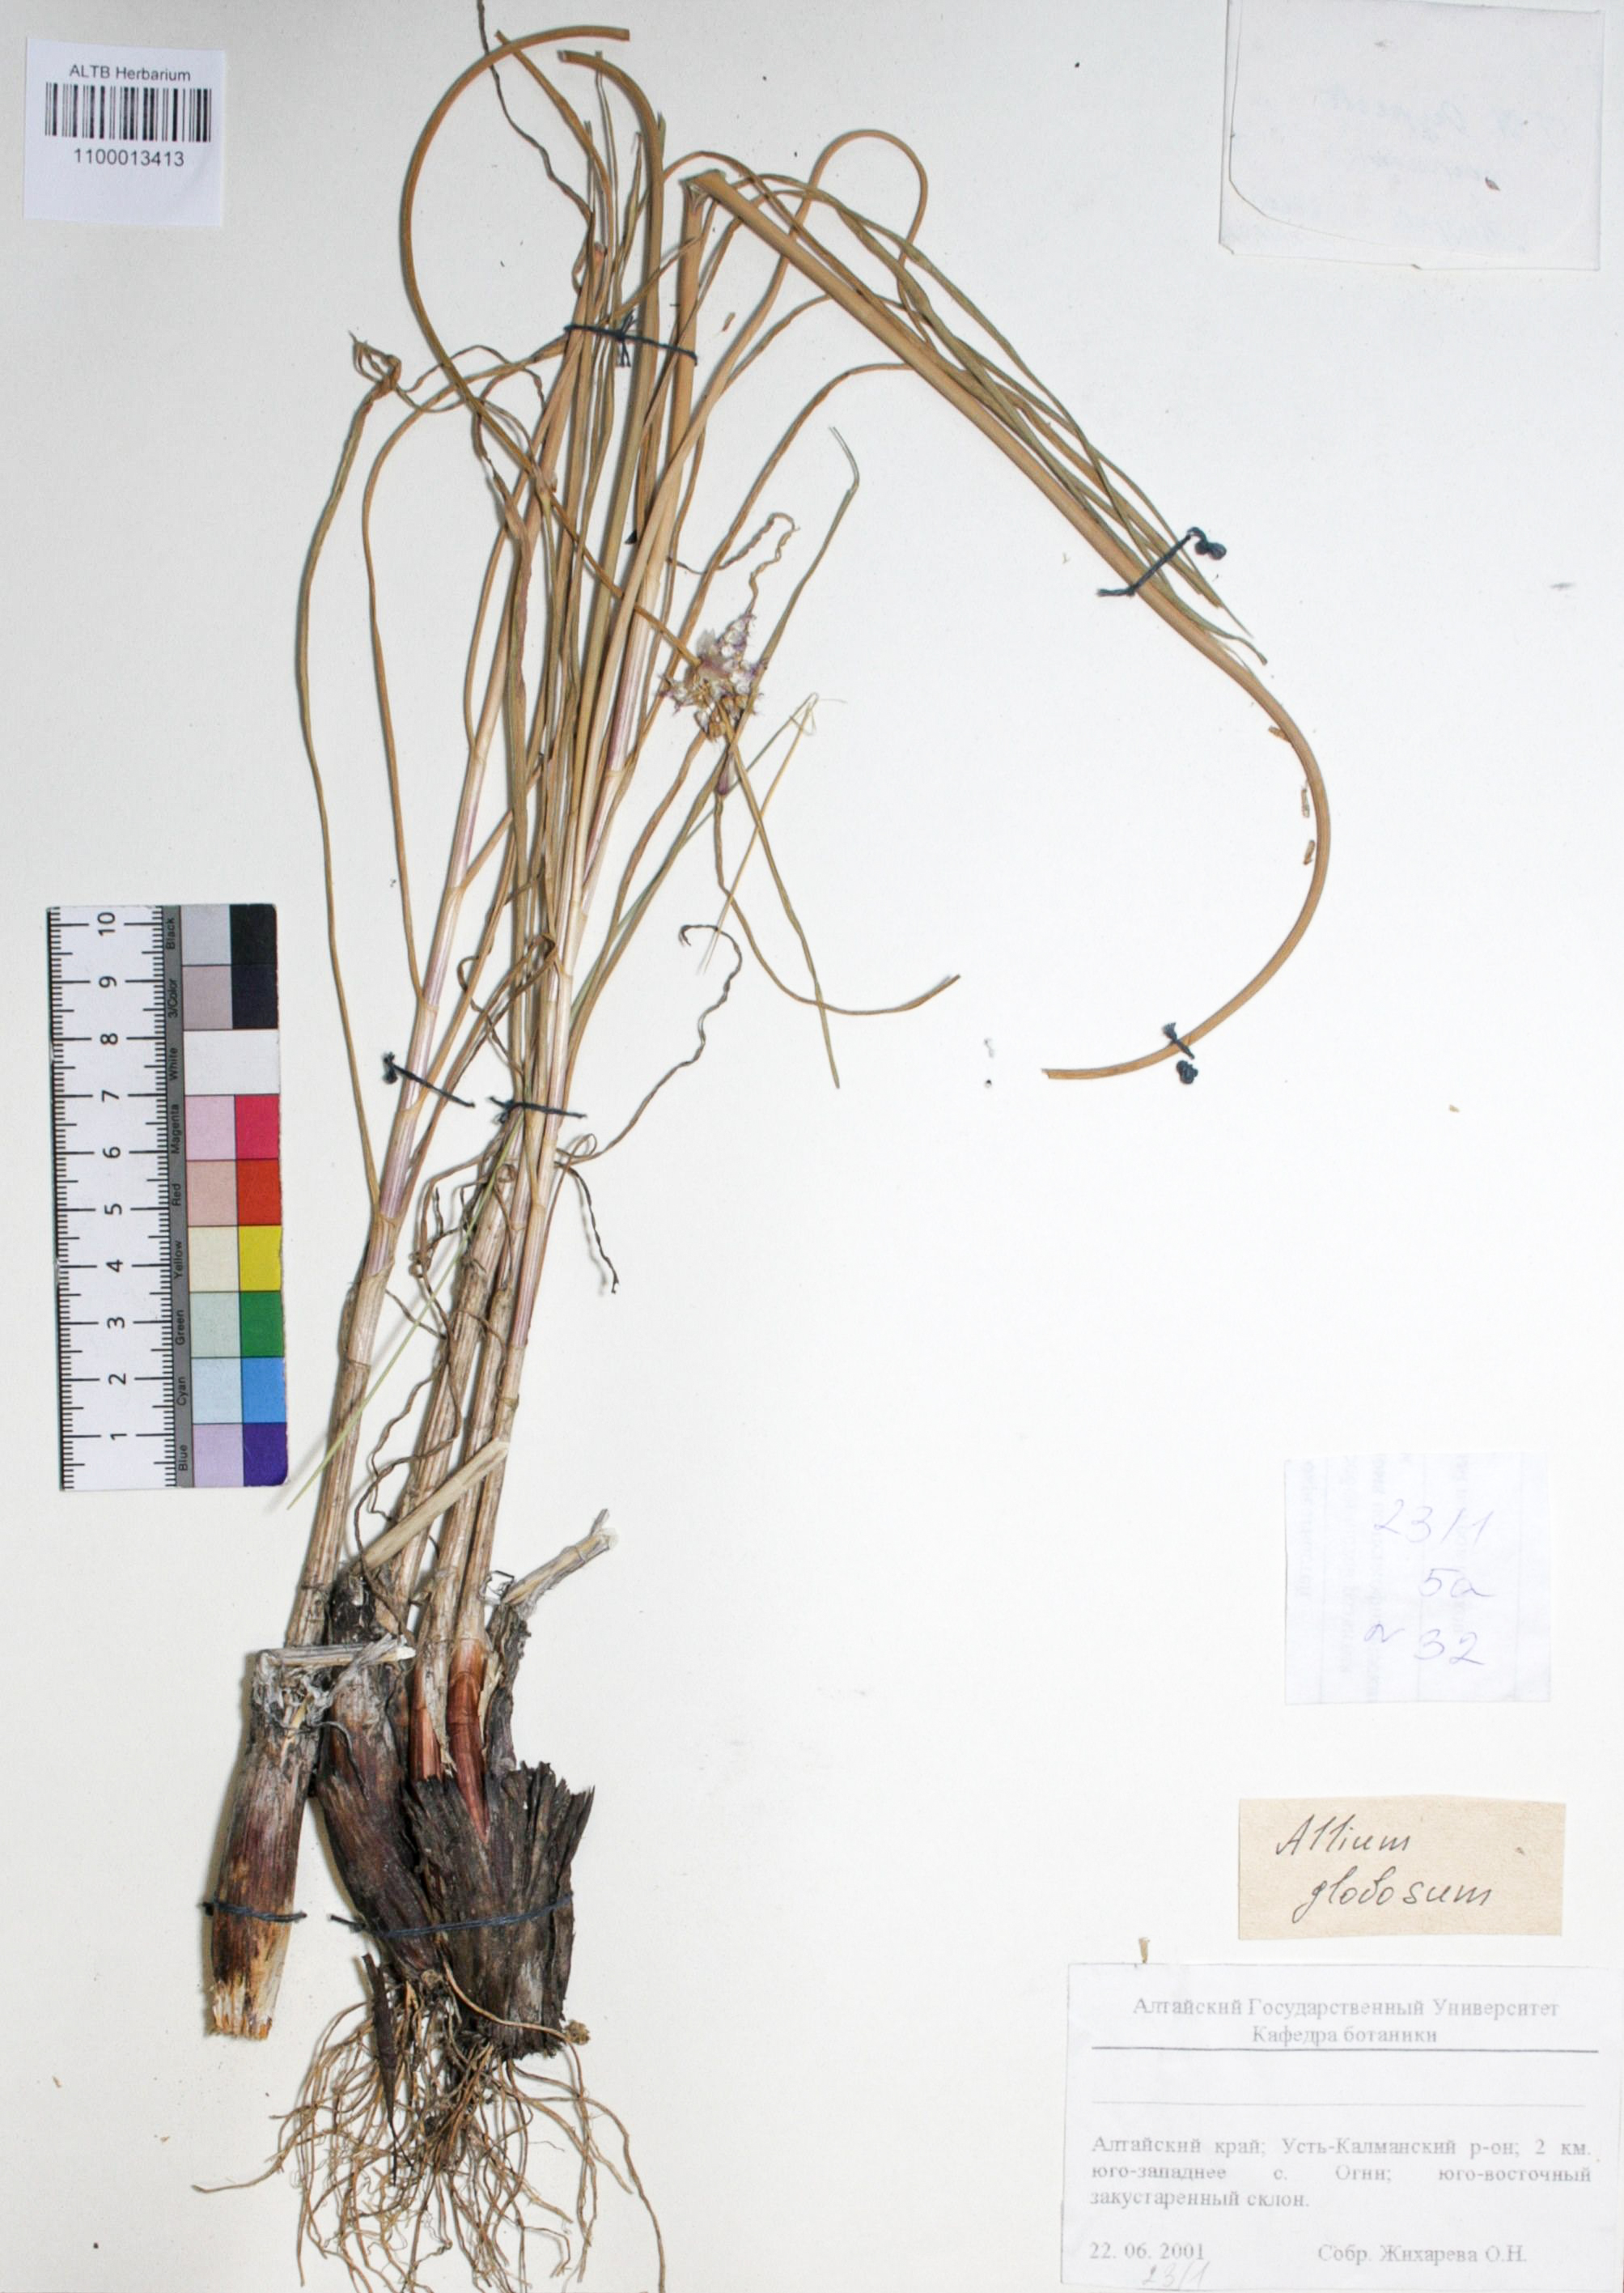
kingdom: Plantae
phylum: Tracheophyta
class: Liliopsida
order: Asparagales
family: Amaryllidaceae
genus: Allium
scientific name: Allium saxatile
